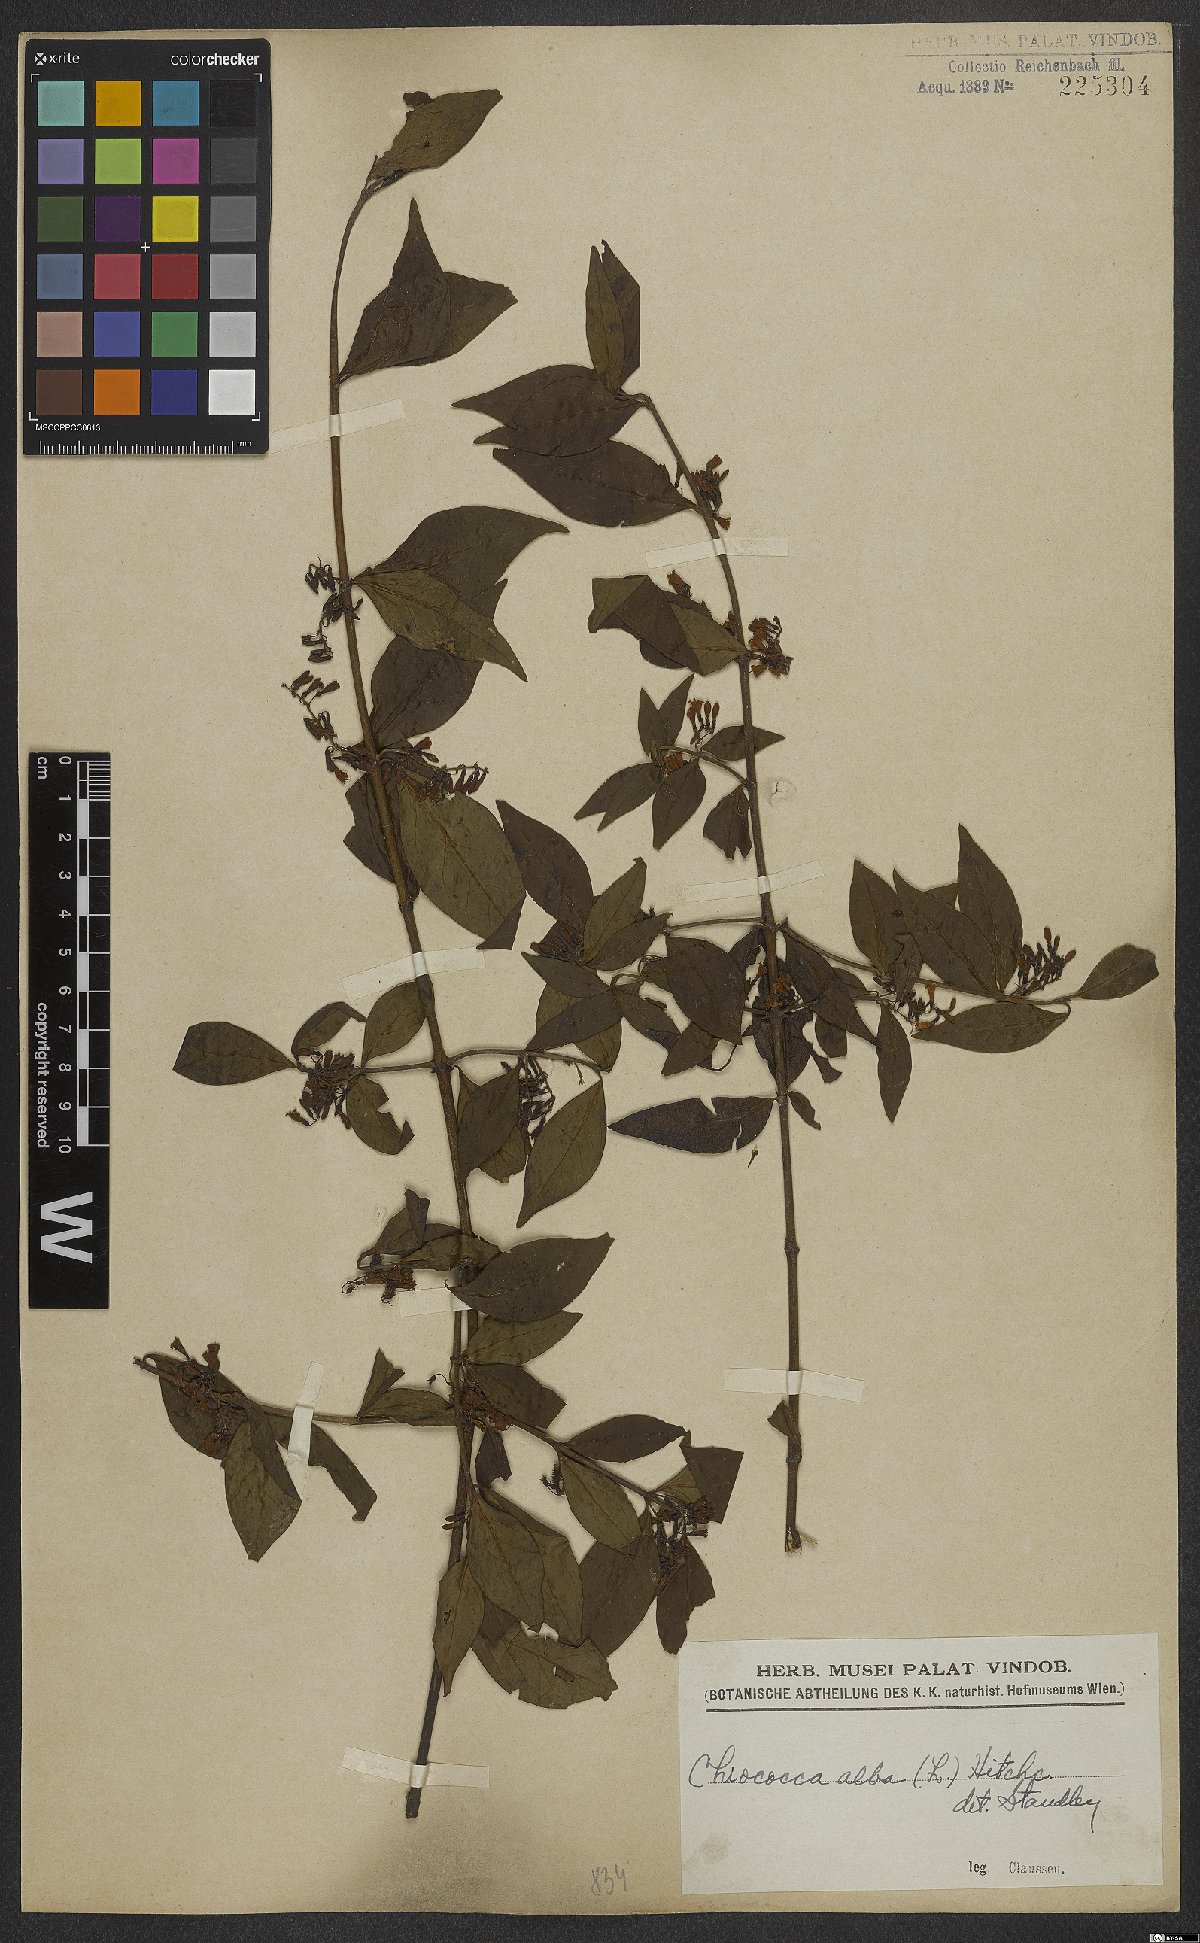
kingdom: Plantae
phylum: Tracheophyta
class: Magnoliopsida
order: Gentianales
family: Rubiaceae
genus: Chiococca
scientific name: Chiococca alba
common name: Snowberry
